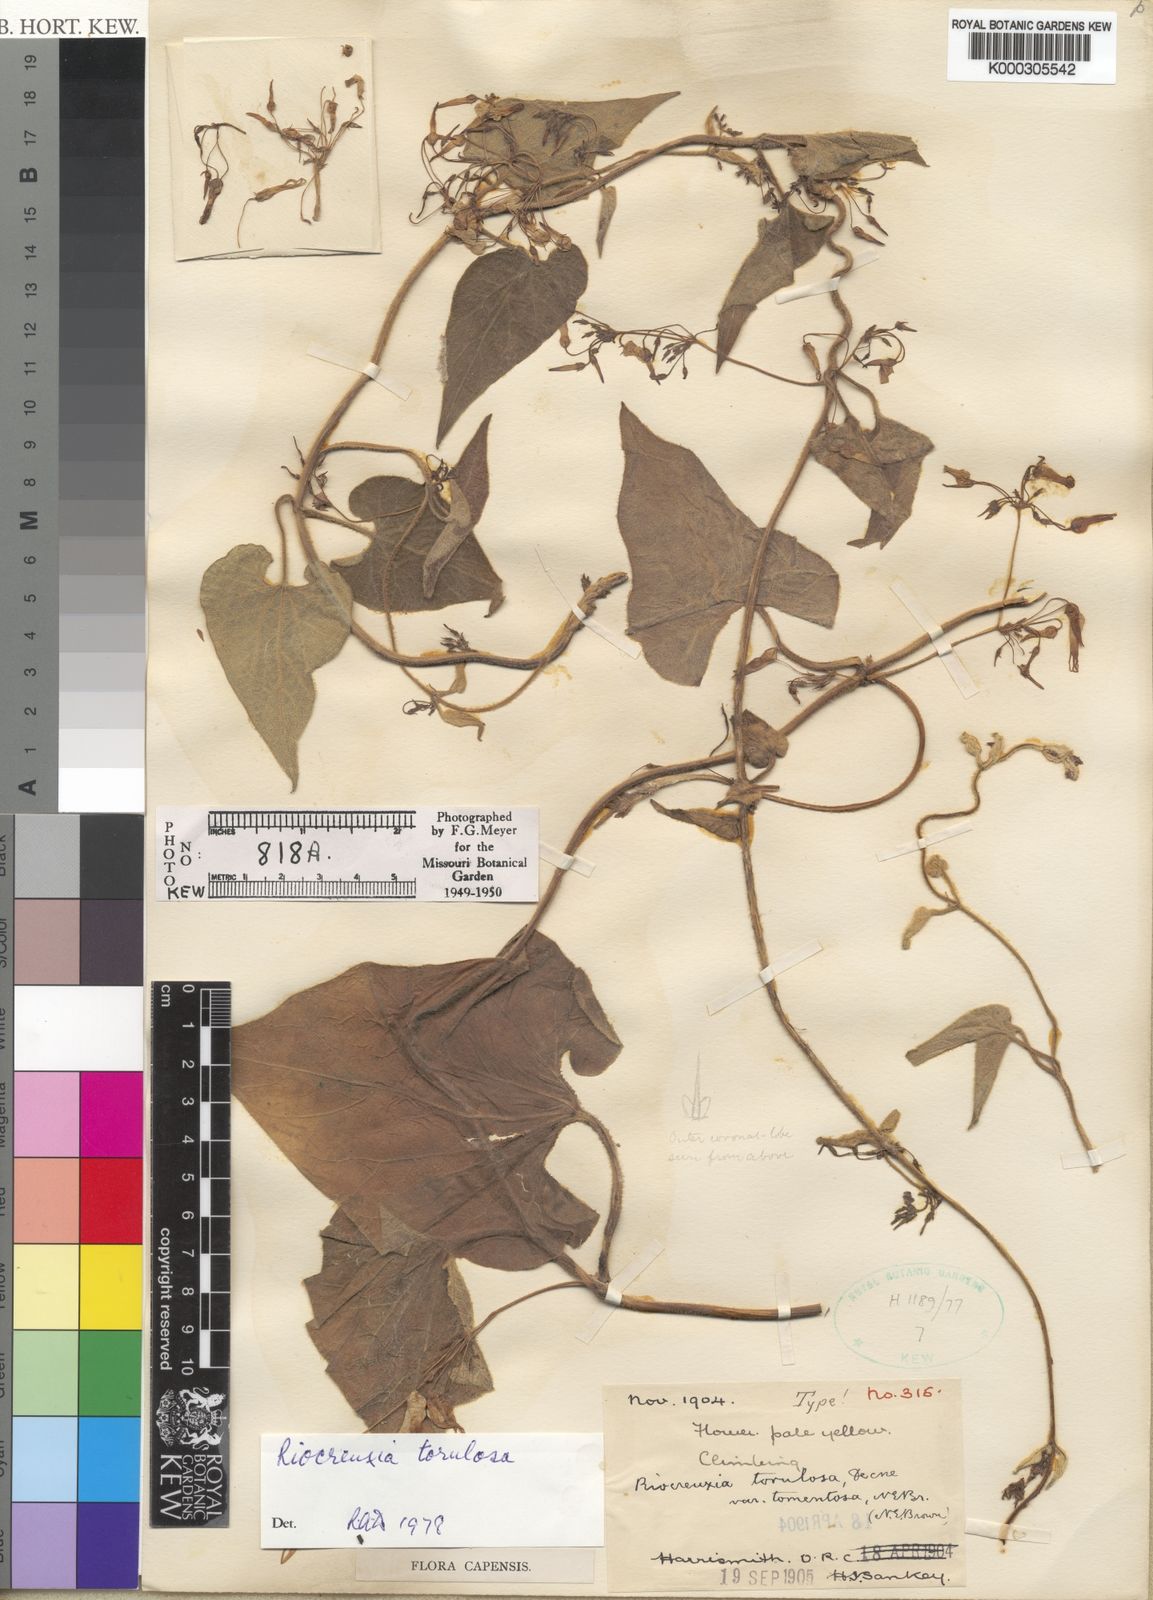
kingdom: Plantae
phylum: Tracheophyta
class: Magnoliopsida
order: Gentianales
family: Apocynaceae
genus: Riocreuxia
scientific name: Riocreuxia torulosa
